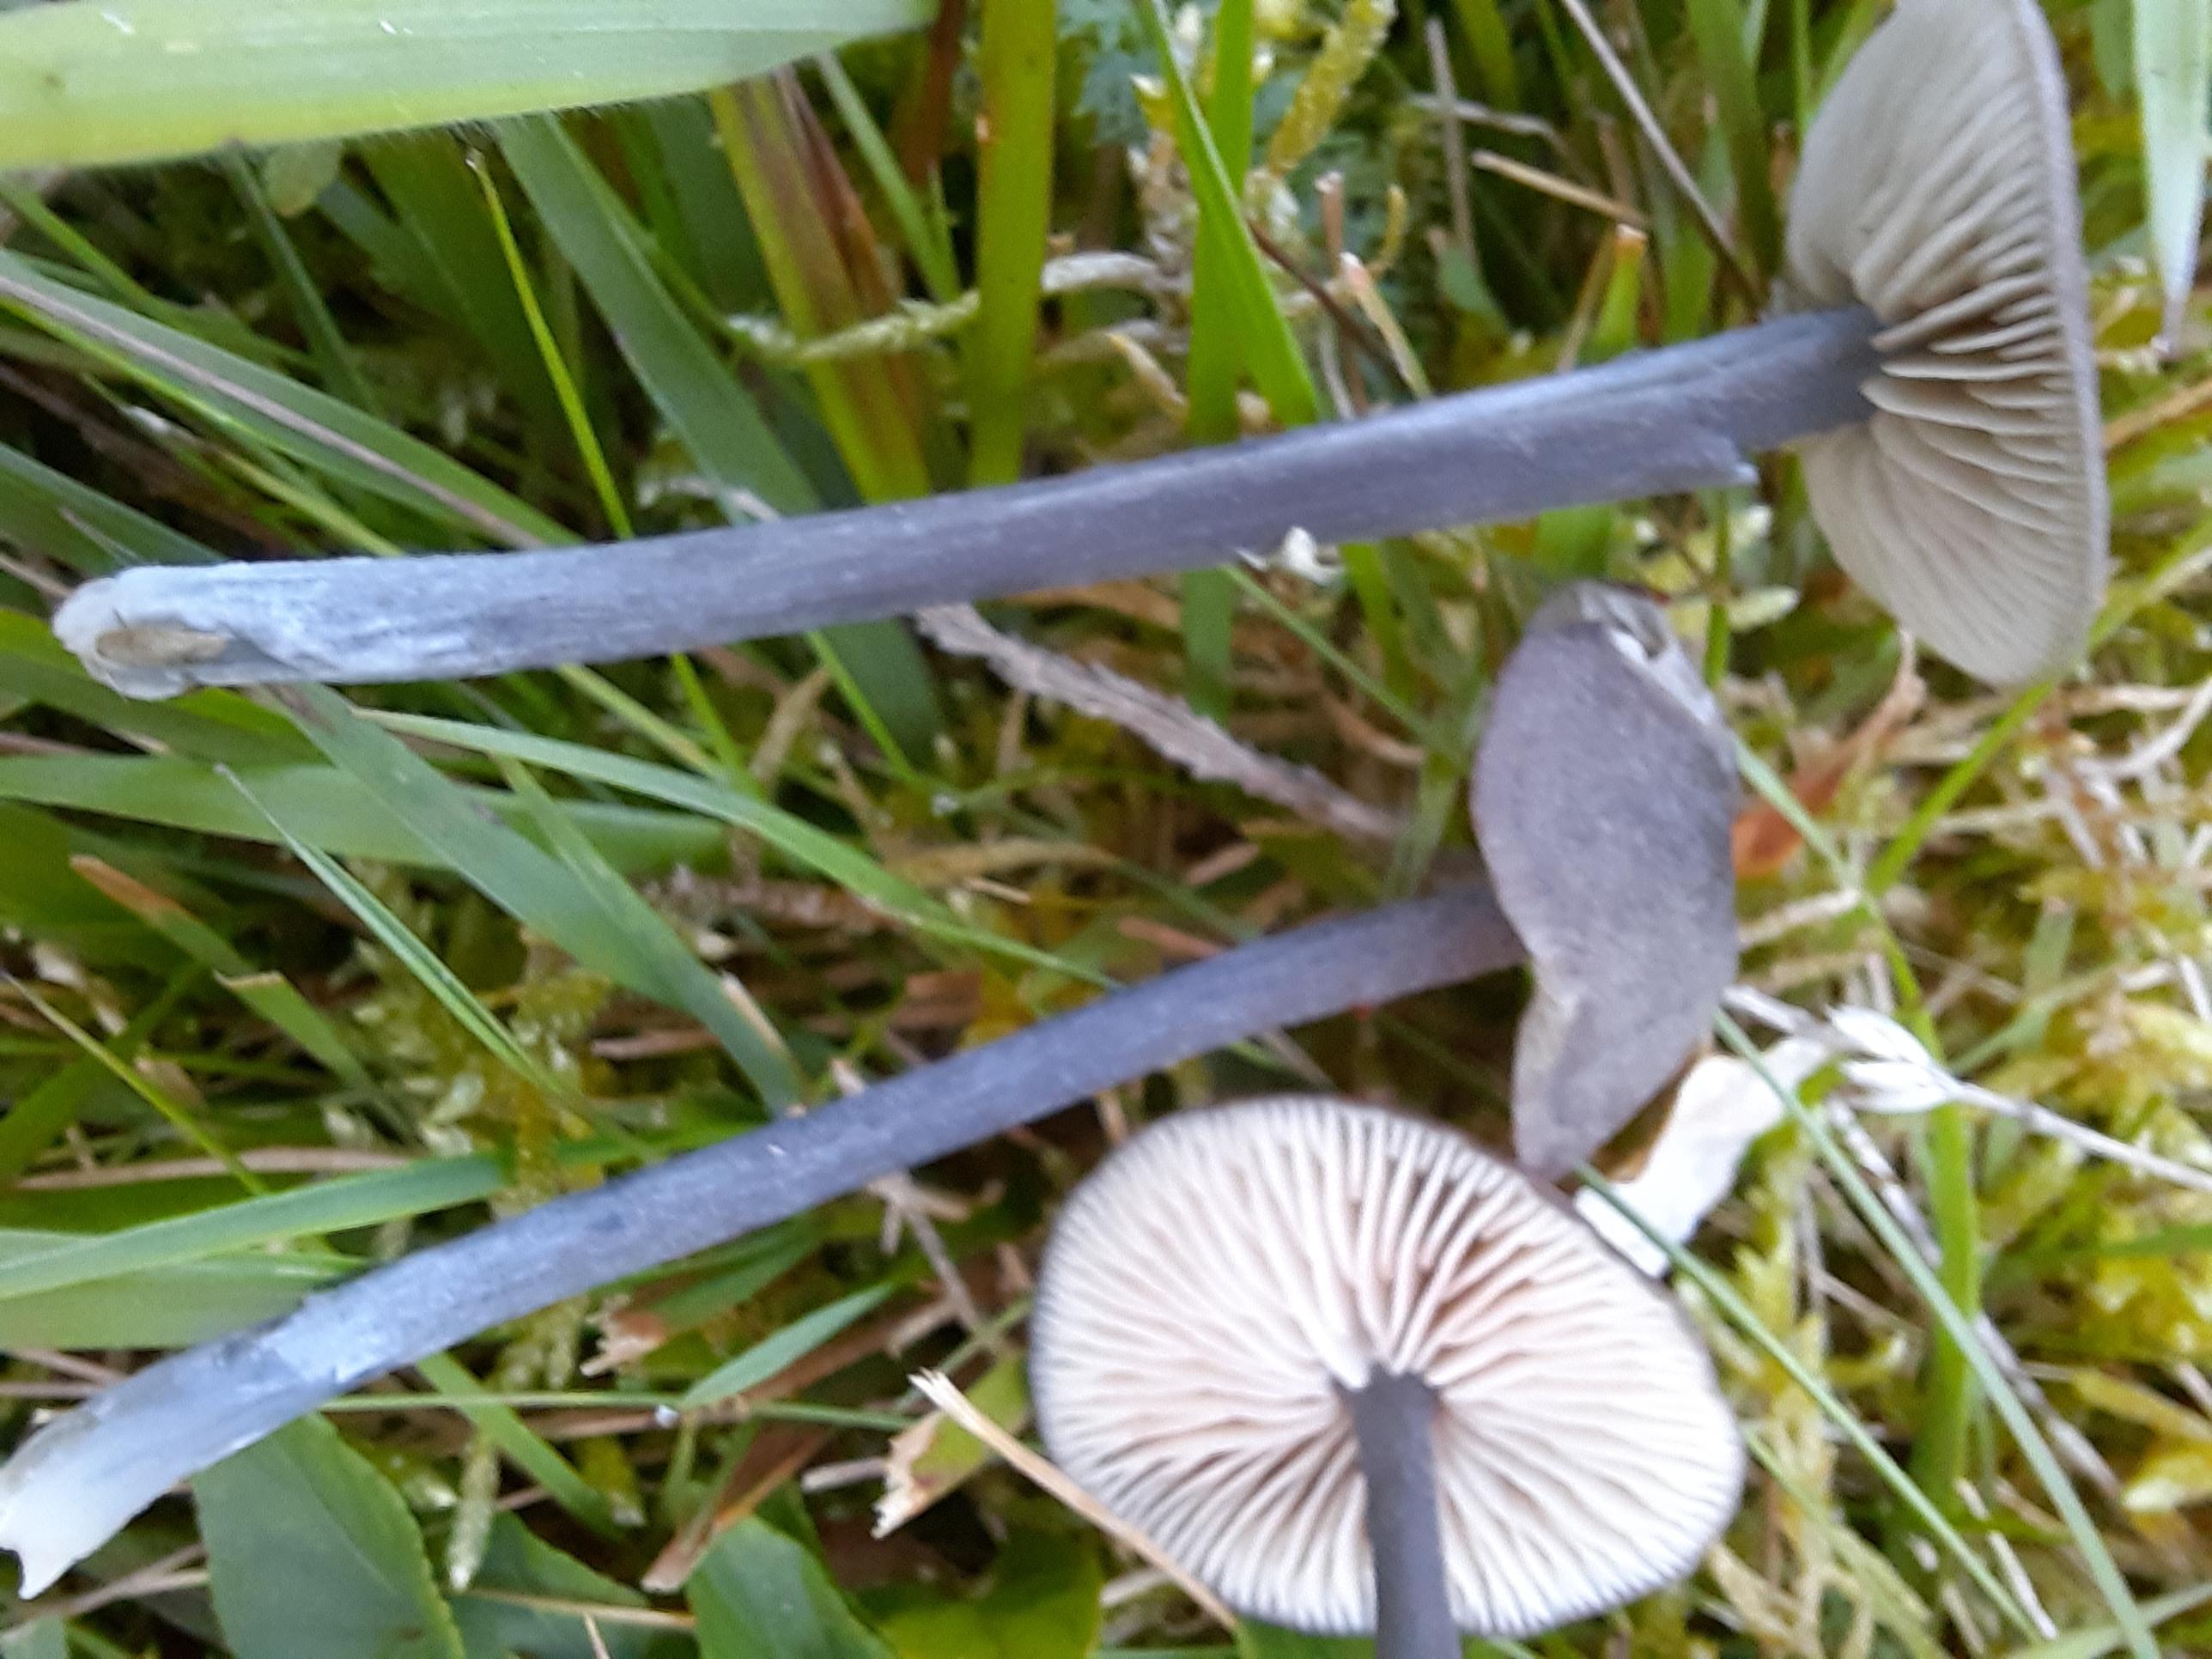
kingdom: Fungi
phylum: Basidiomycota
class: Agaricomycetes
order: Agaricales
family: Entolomataceae
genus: Entoloma
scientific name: Entoloma atrocoeruleum
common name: sortblå rødblad
